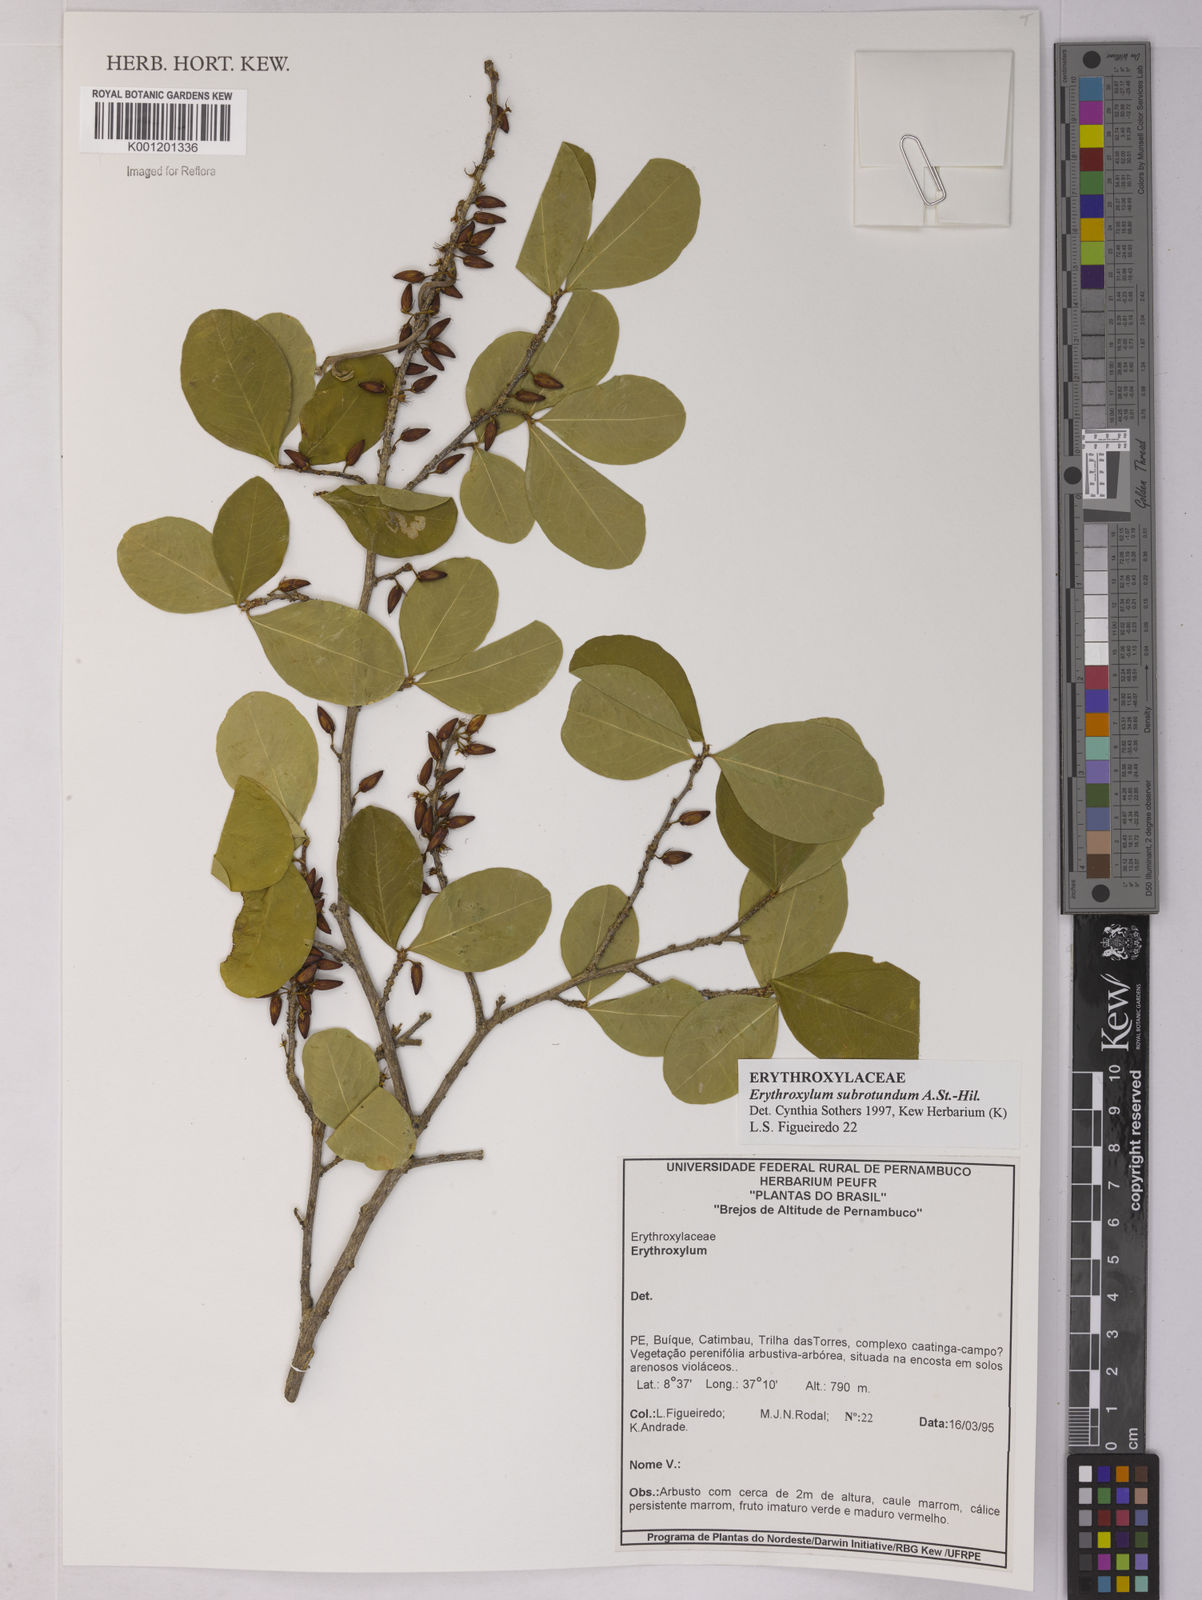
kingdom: Plantae
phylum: Tracheophyta
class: Magnoliopsida
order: Malpighiales
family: Erythroxylaceae
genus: Erythroxylum
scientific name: Erythroxylum subrotundum
